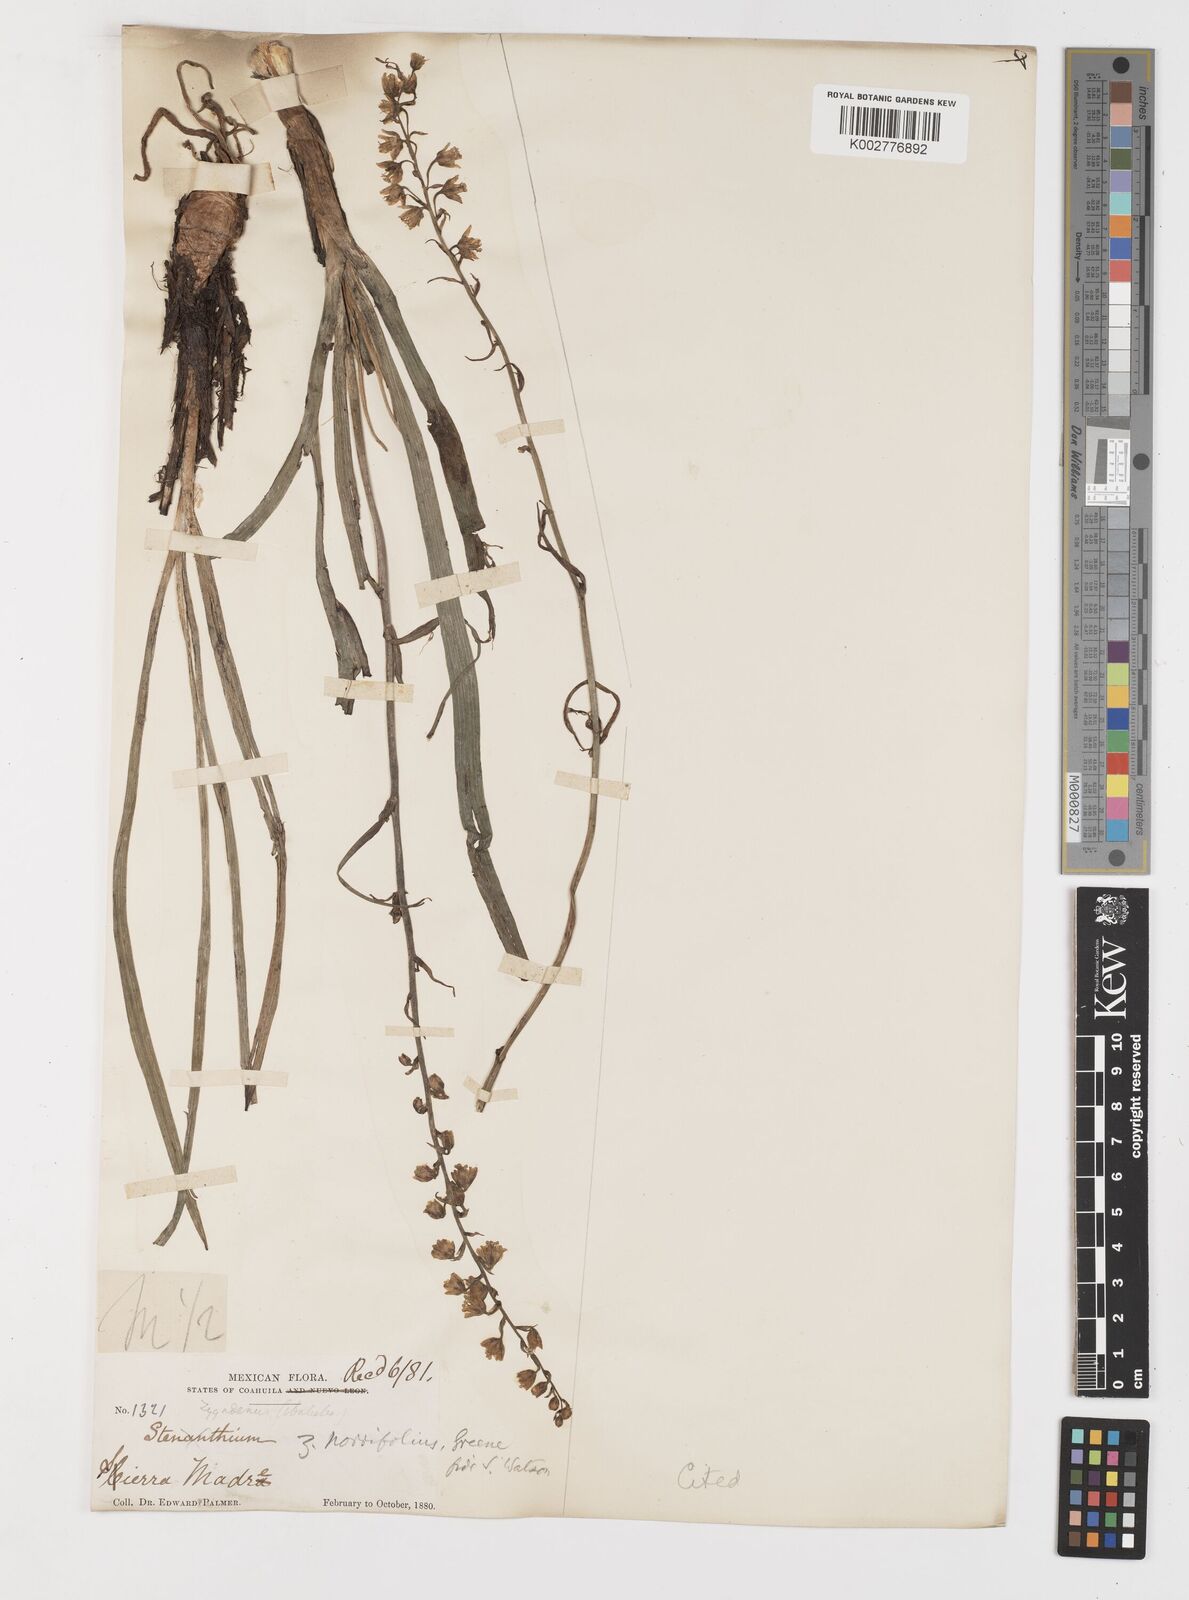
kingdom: Plantae
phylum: Tracheophyta
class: Liliopsida
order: Liliales
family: Melanthiaceae
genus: Anticlea
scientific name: Anticlea virescens
